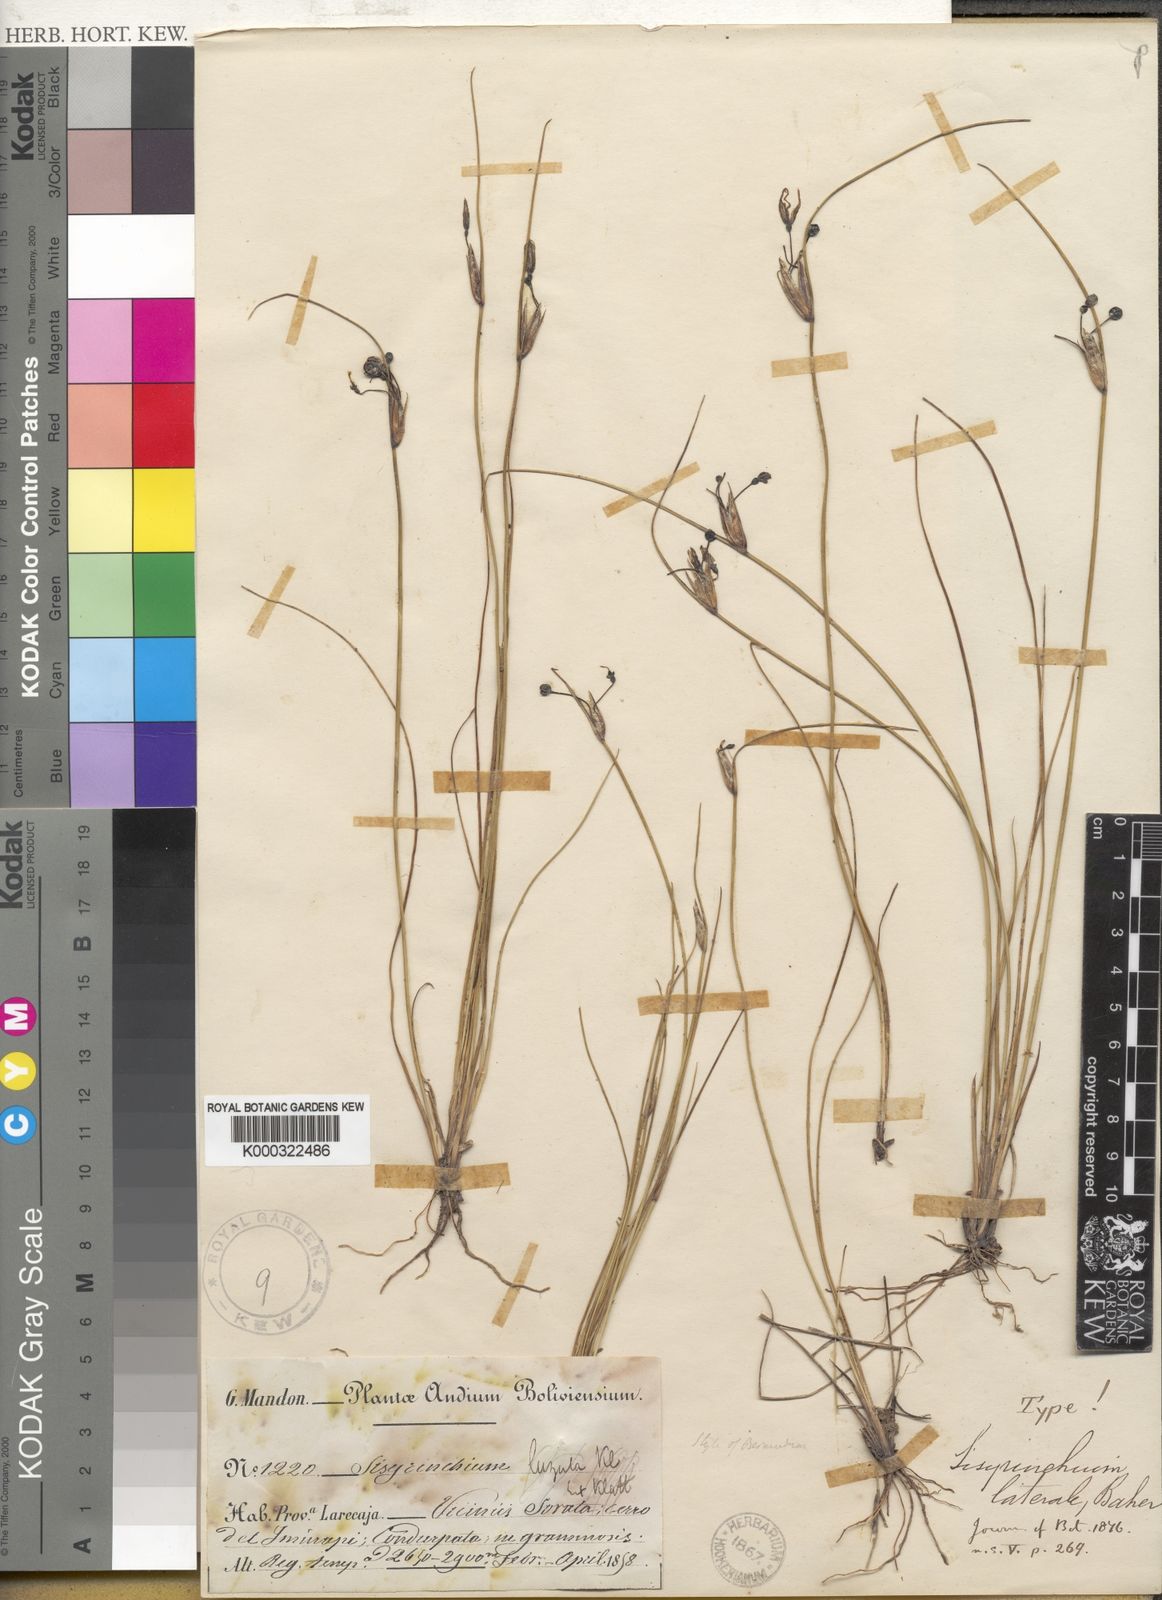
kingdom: Plantae
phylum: Tracheophyta
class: Liliopsida
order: Asparagales
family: Iridaceae
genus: Sisyrinchium
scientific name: Sisyrinchium laterale
